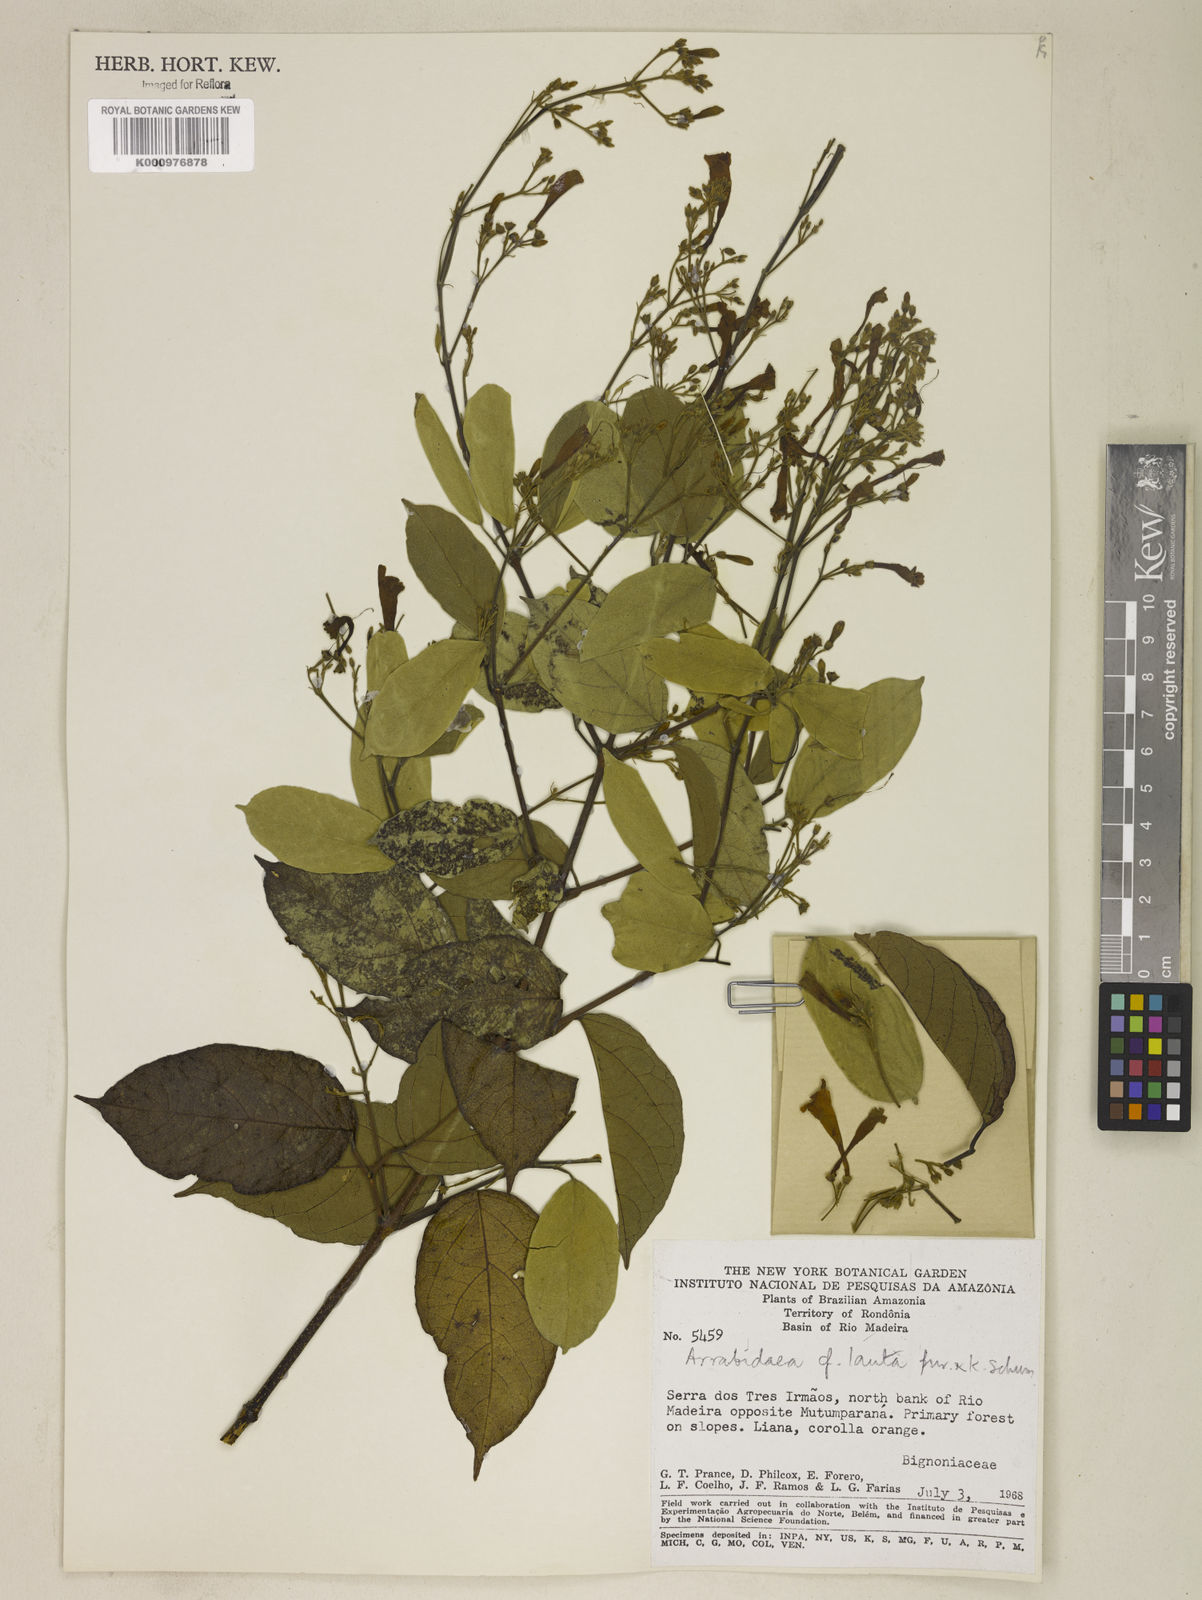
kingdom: Plantae
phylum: Tracheophyta
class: Magnoliopsida
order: Lamiales
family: Bignoniaceae
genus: Fridericia
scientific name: Fridericia lauta
